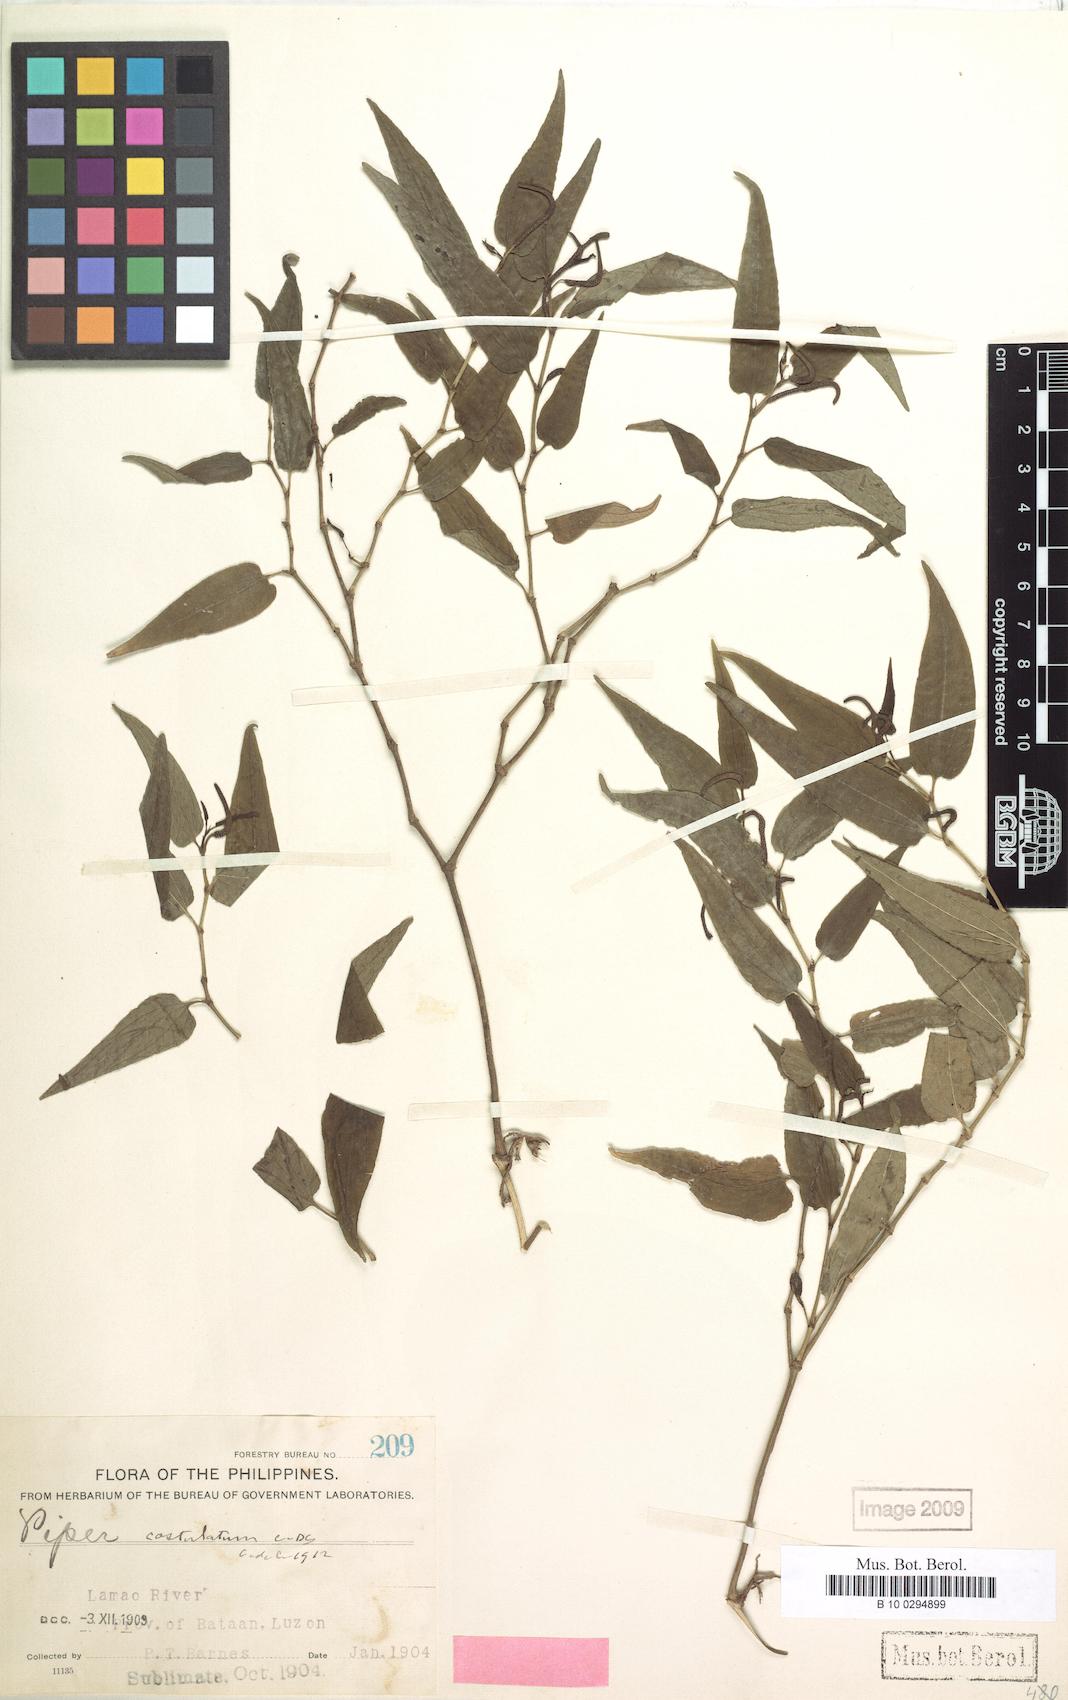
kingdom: Plantae
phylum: Tracheophyta
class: Magnoliopsida
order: Piperales
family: Piperaceae
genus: Piper
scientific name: Piper costulatum
